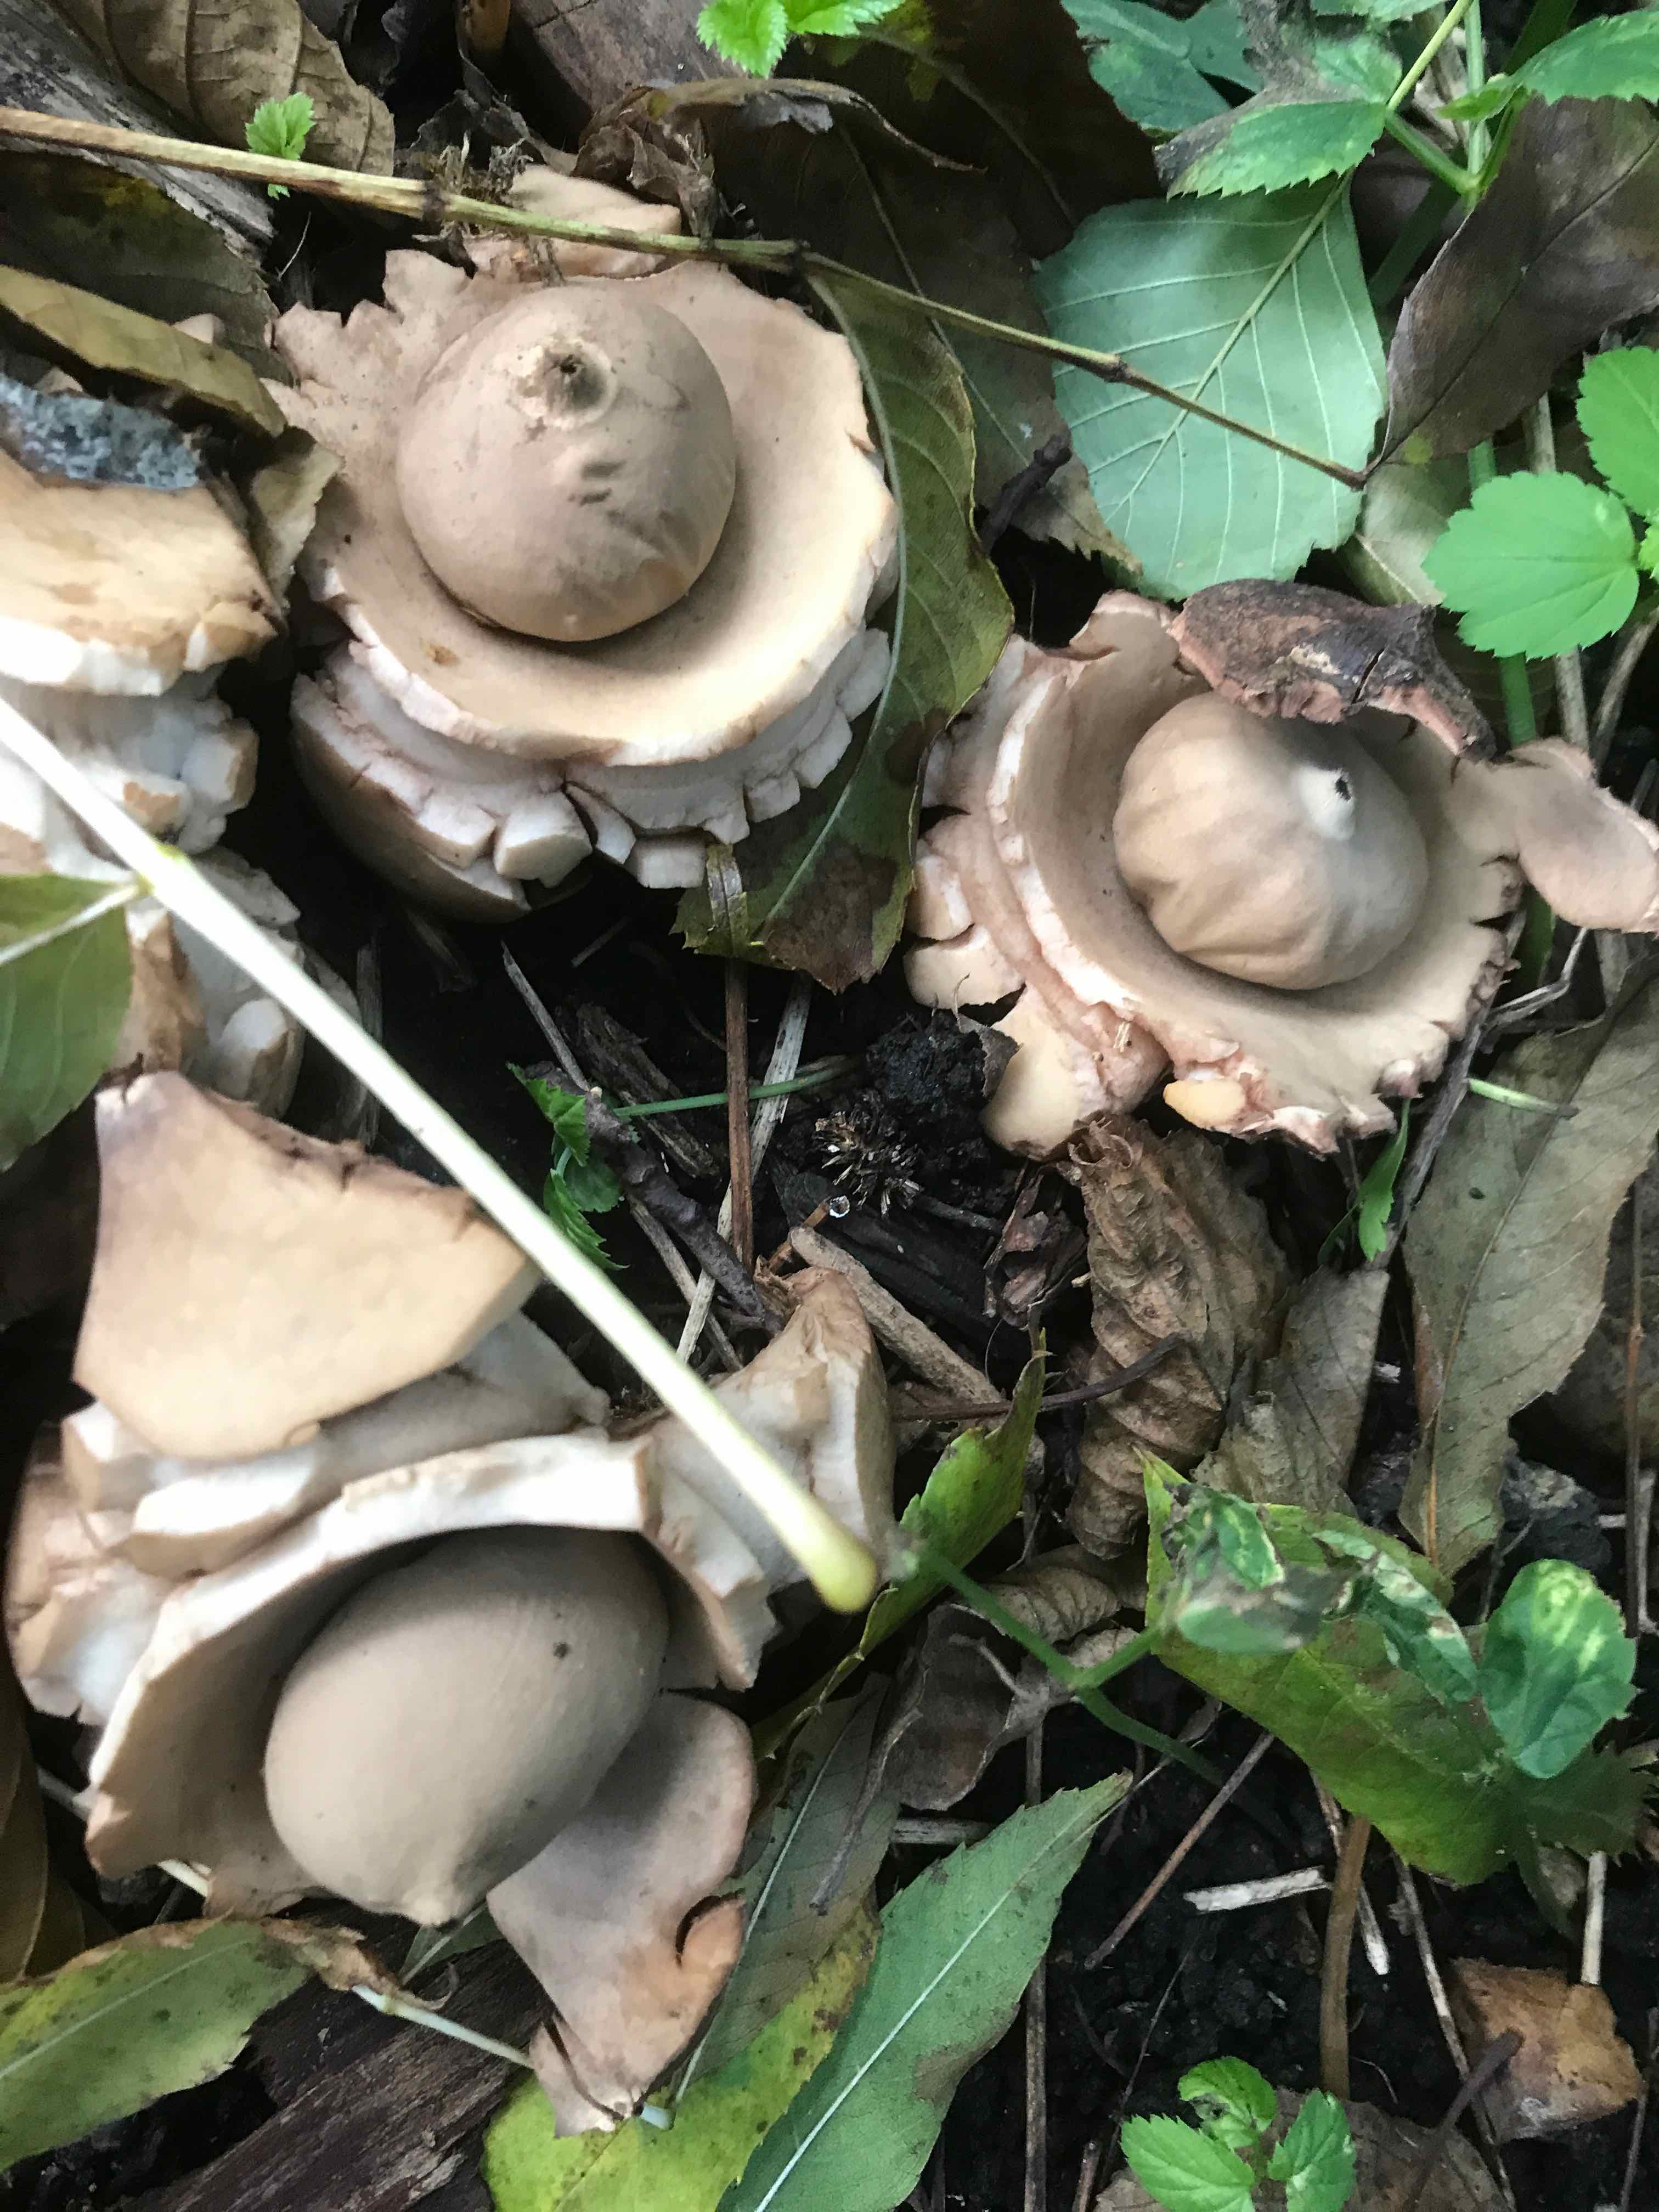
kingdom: Fungi
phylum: Basidiomycota
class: Agaricomycetes
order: Geastrales
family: Geastraceae
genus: Geastrum
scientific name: Geastrum michelianum
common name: kødet stjernebold
